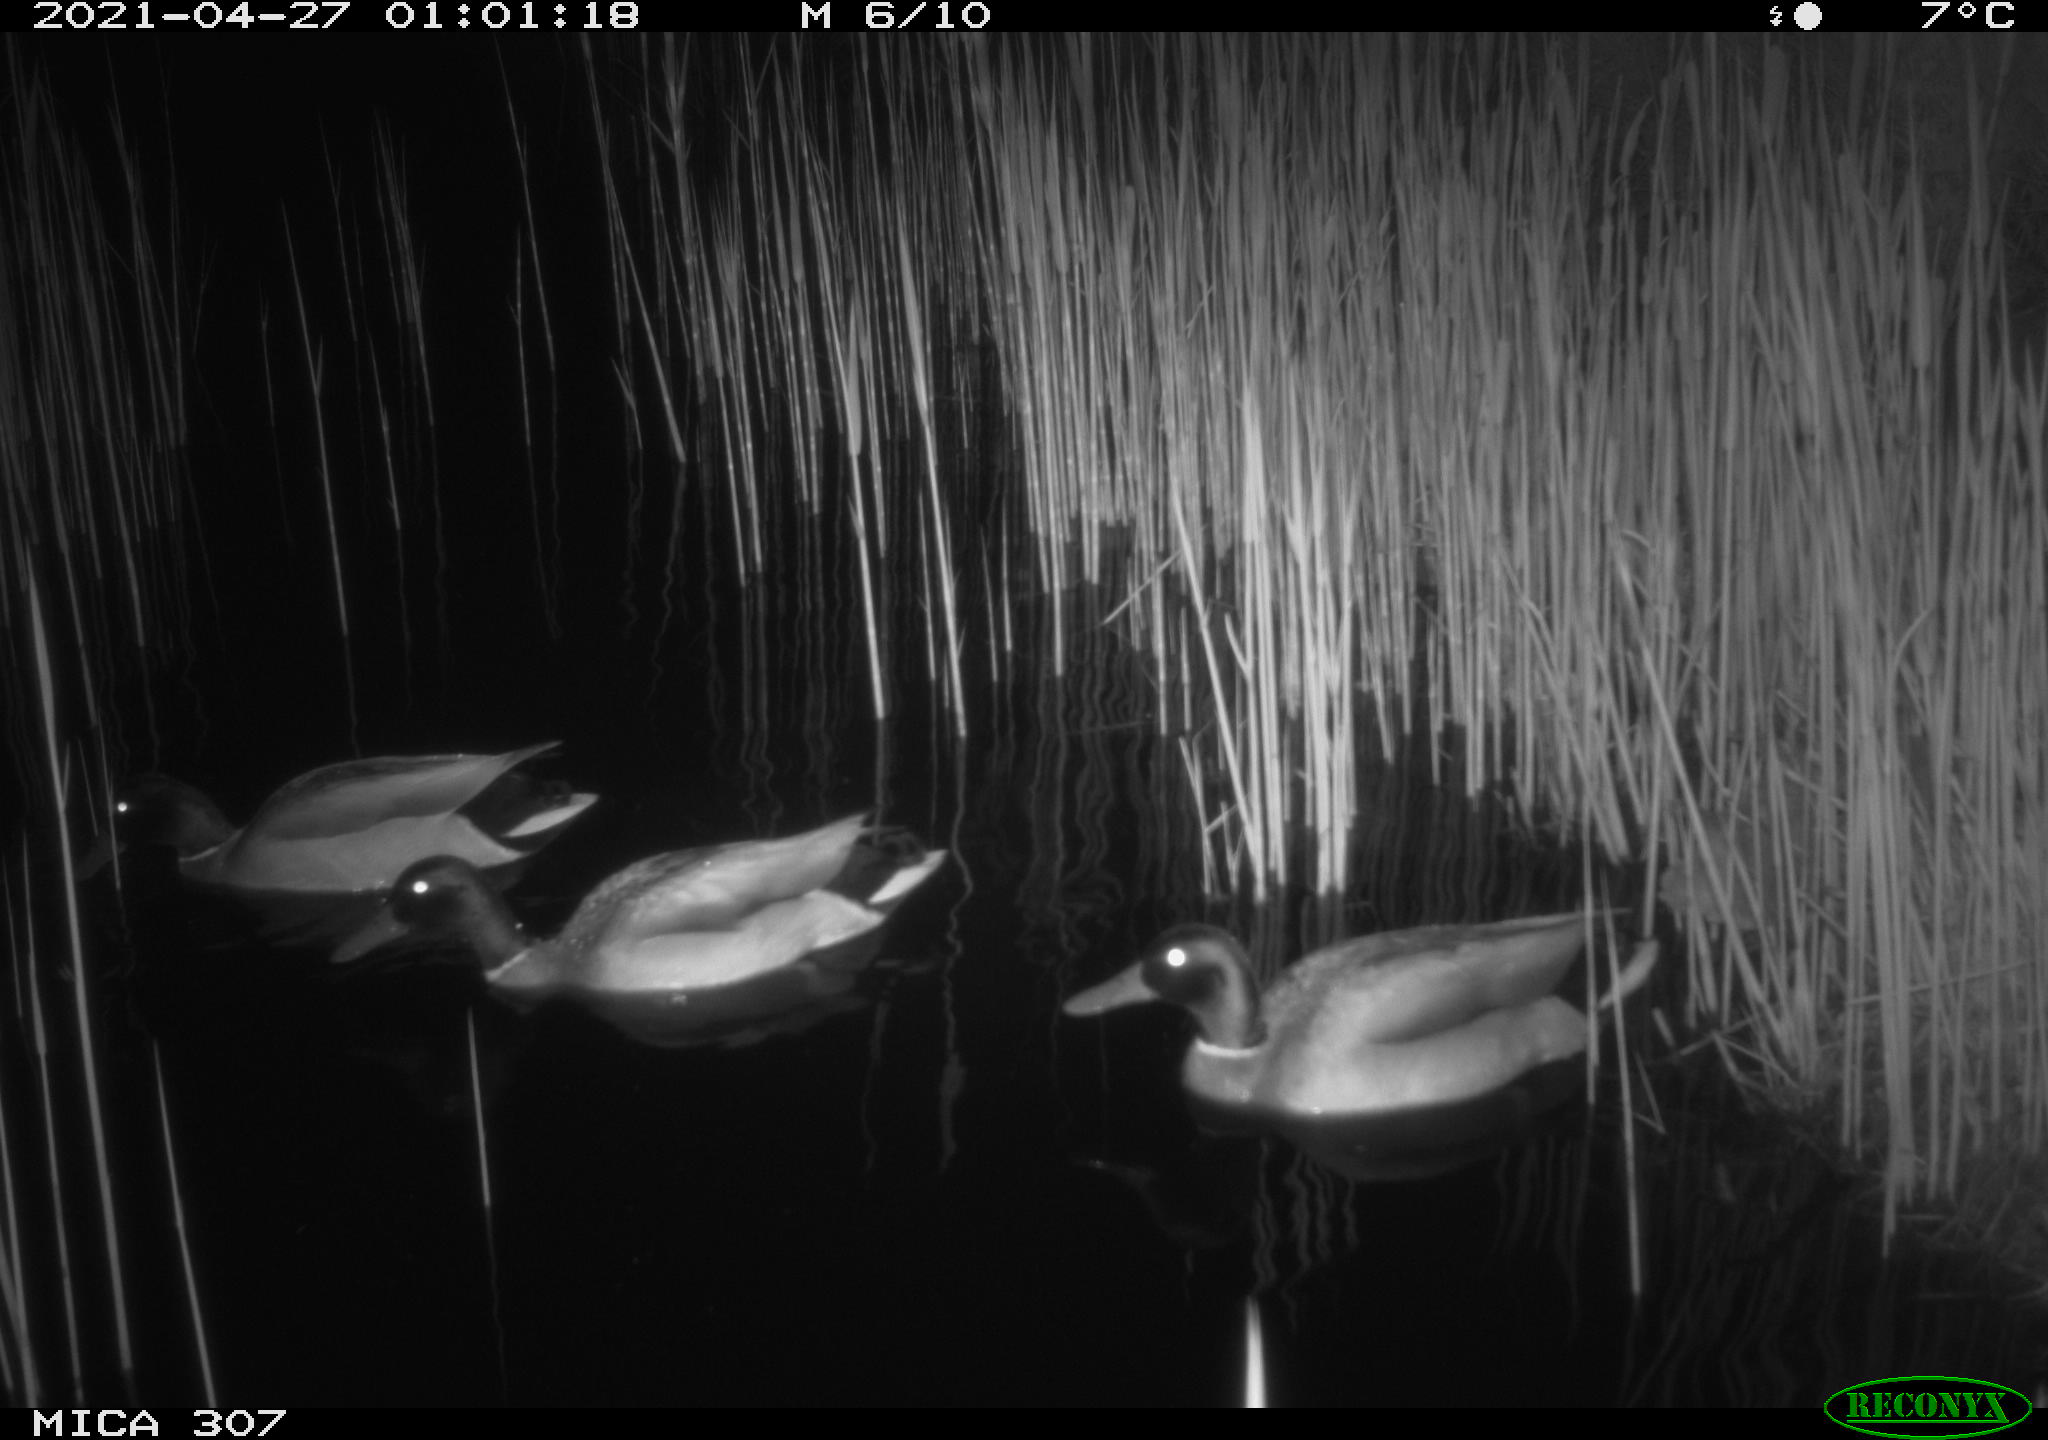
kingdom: Animalia
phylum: Chordata
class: Aves
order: Gruiformes
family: Rallidae
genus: Gallinula
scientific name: Gallinula chloropus
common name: Common moorhen
